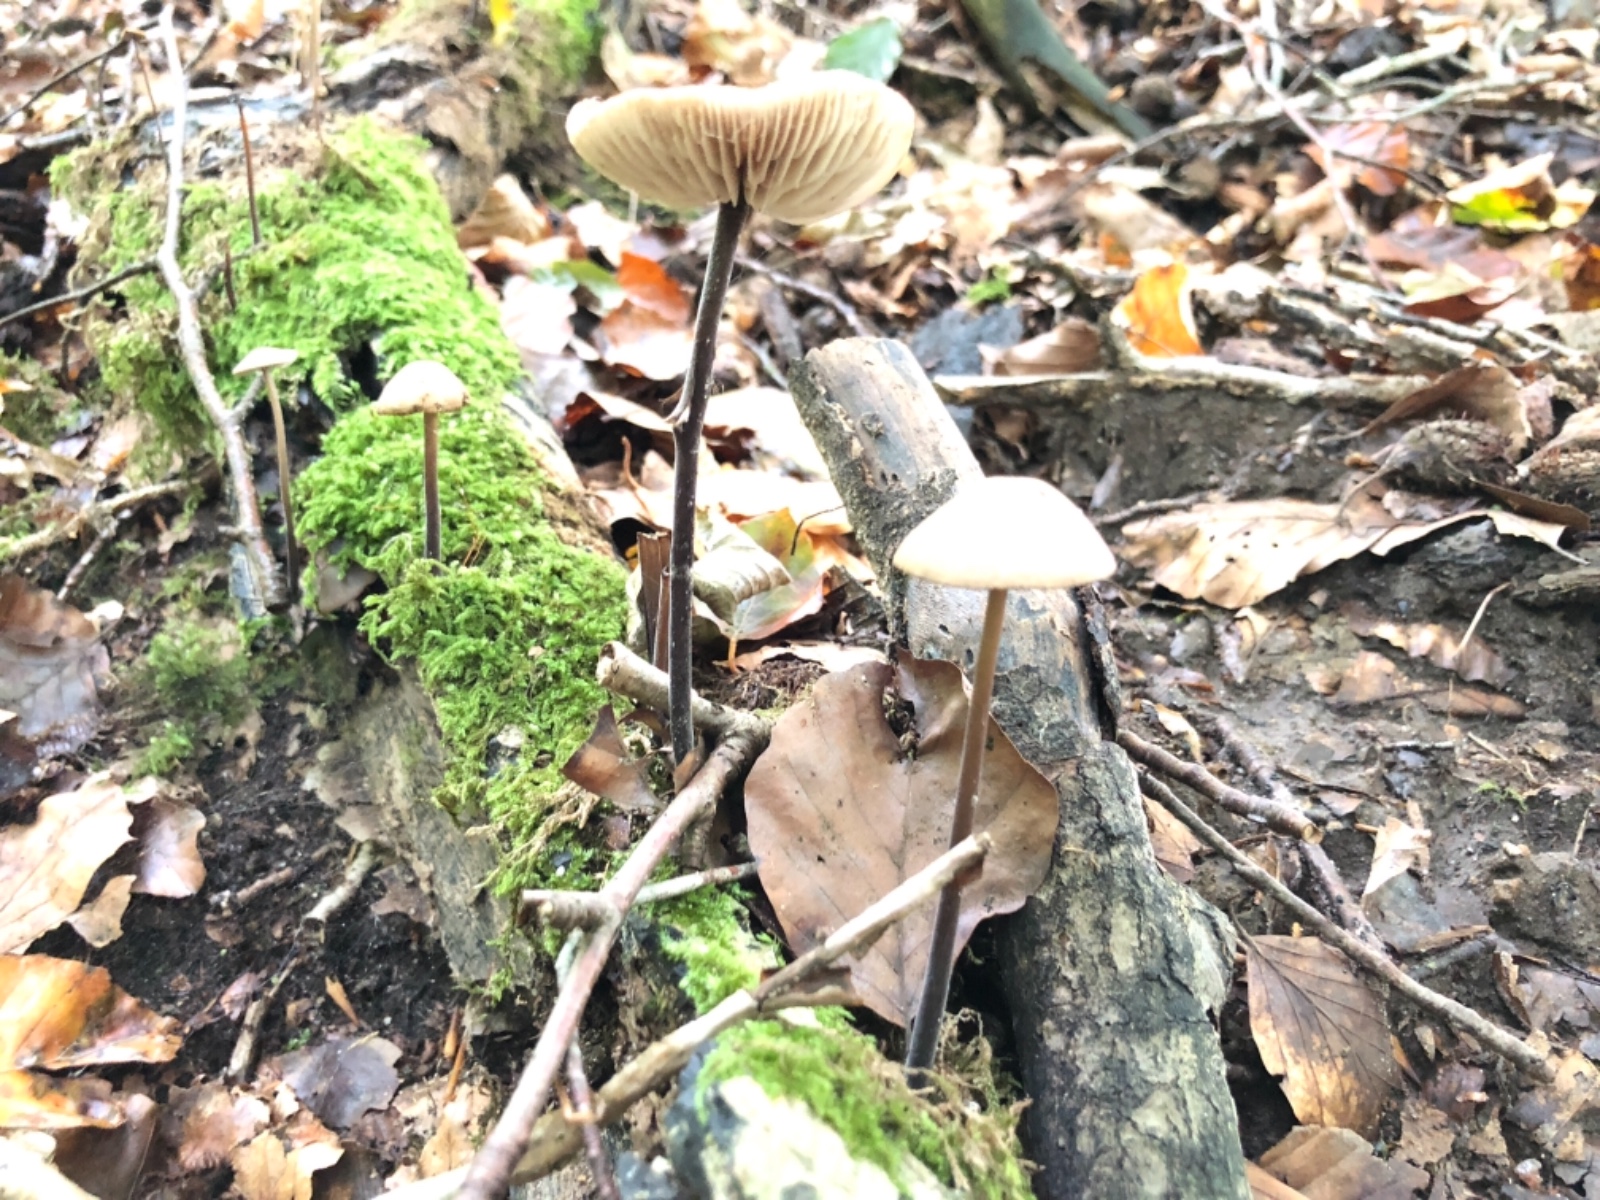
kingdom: Fungi
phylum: Basidiomycota
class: Agaricomycetes
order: Agaricales
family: Omphalotaceae
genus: Mycetinis
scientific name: Mycetinis alliaceus
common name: stor løghat
